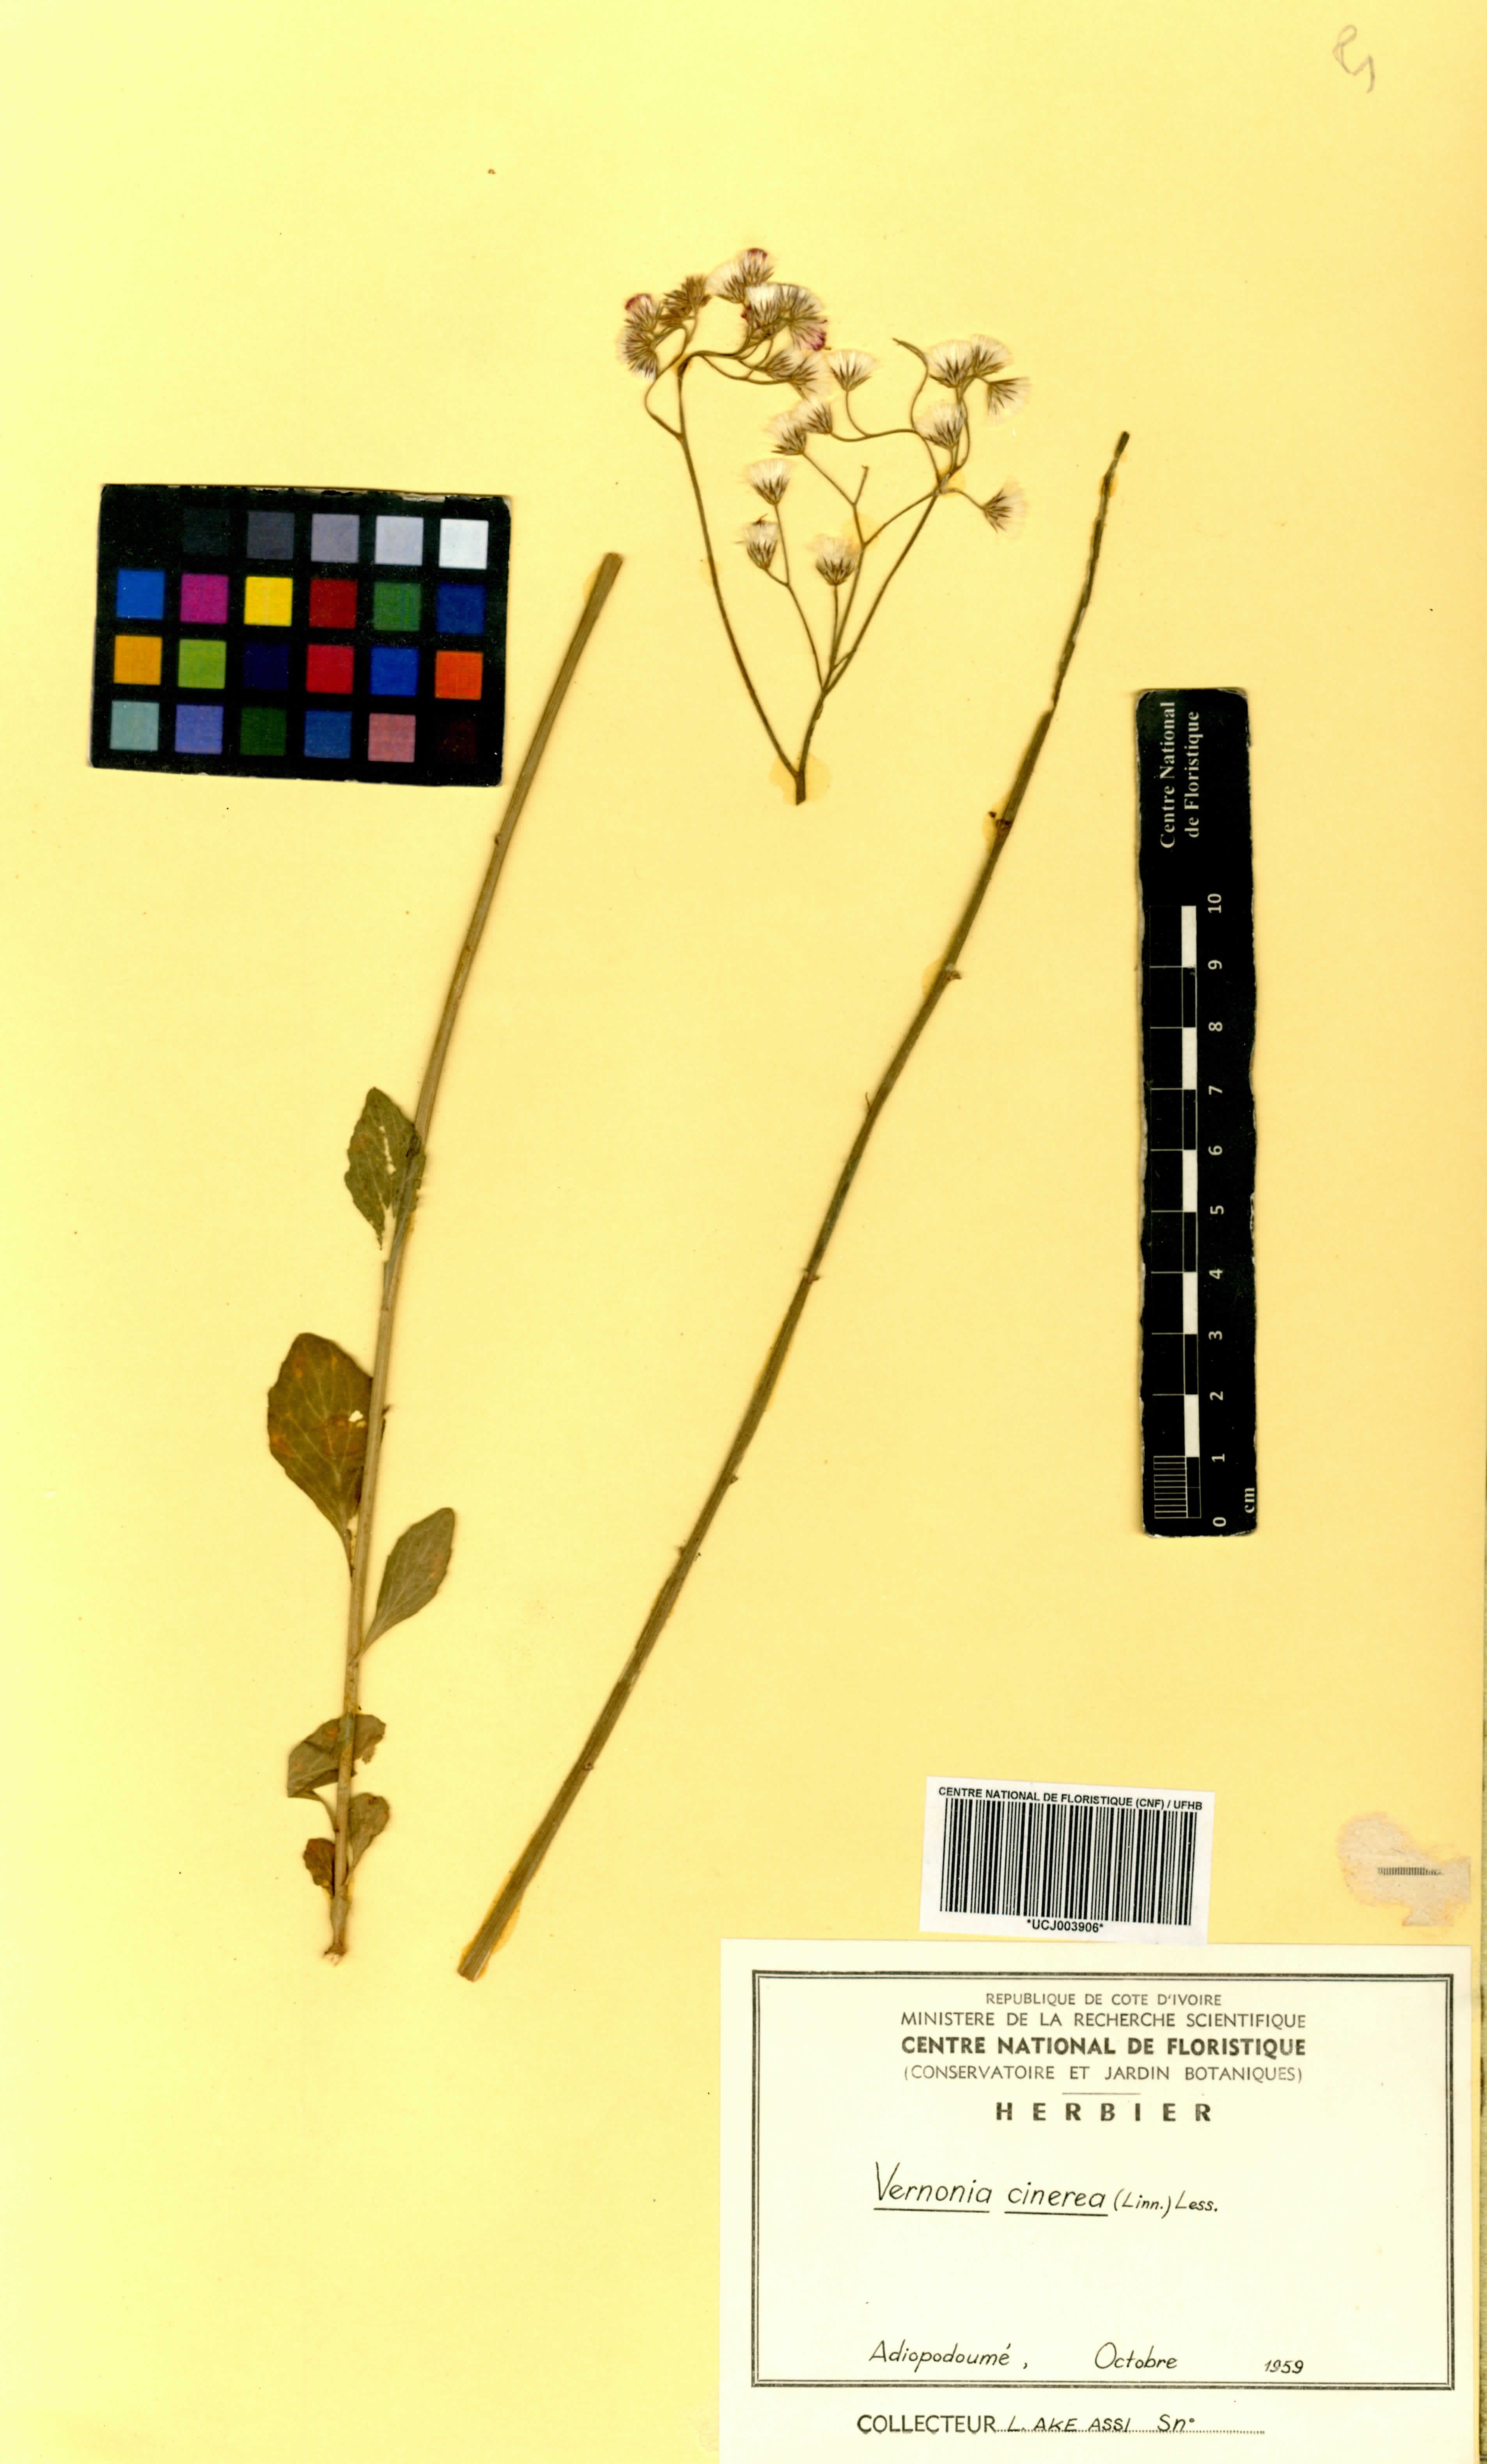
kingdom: Plantae
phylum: Tracheophyta
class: Magnoliopsida
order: Asterales
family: Asteraceae
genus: Cyanthillium
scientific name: Cyanthillium cinereum
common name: Little ironweed
